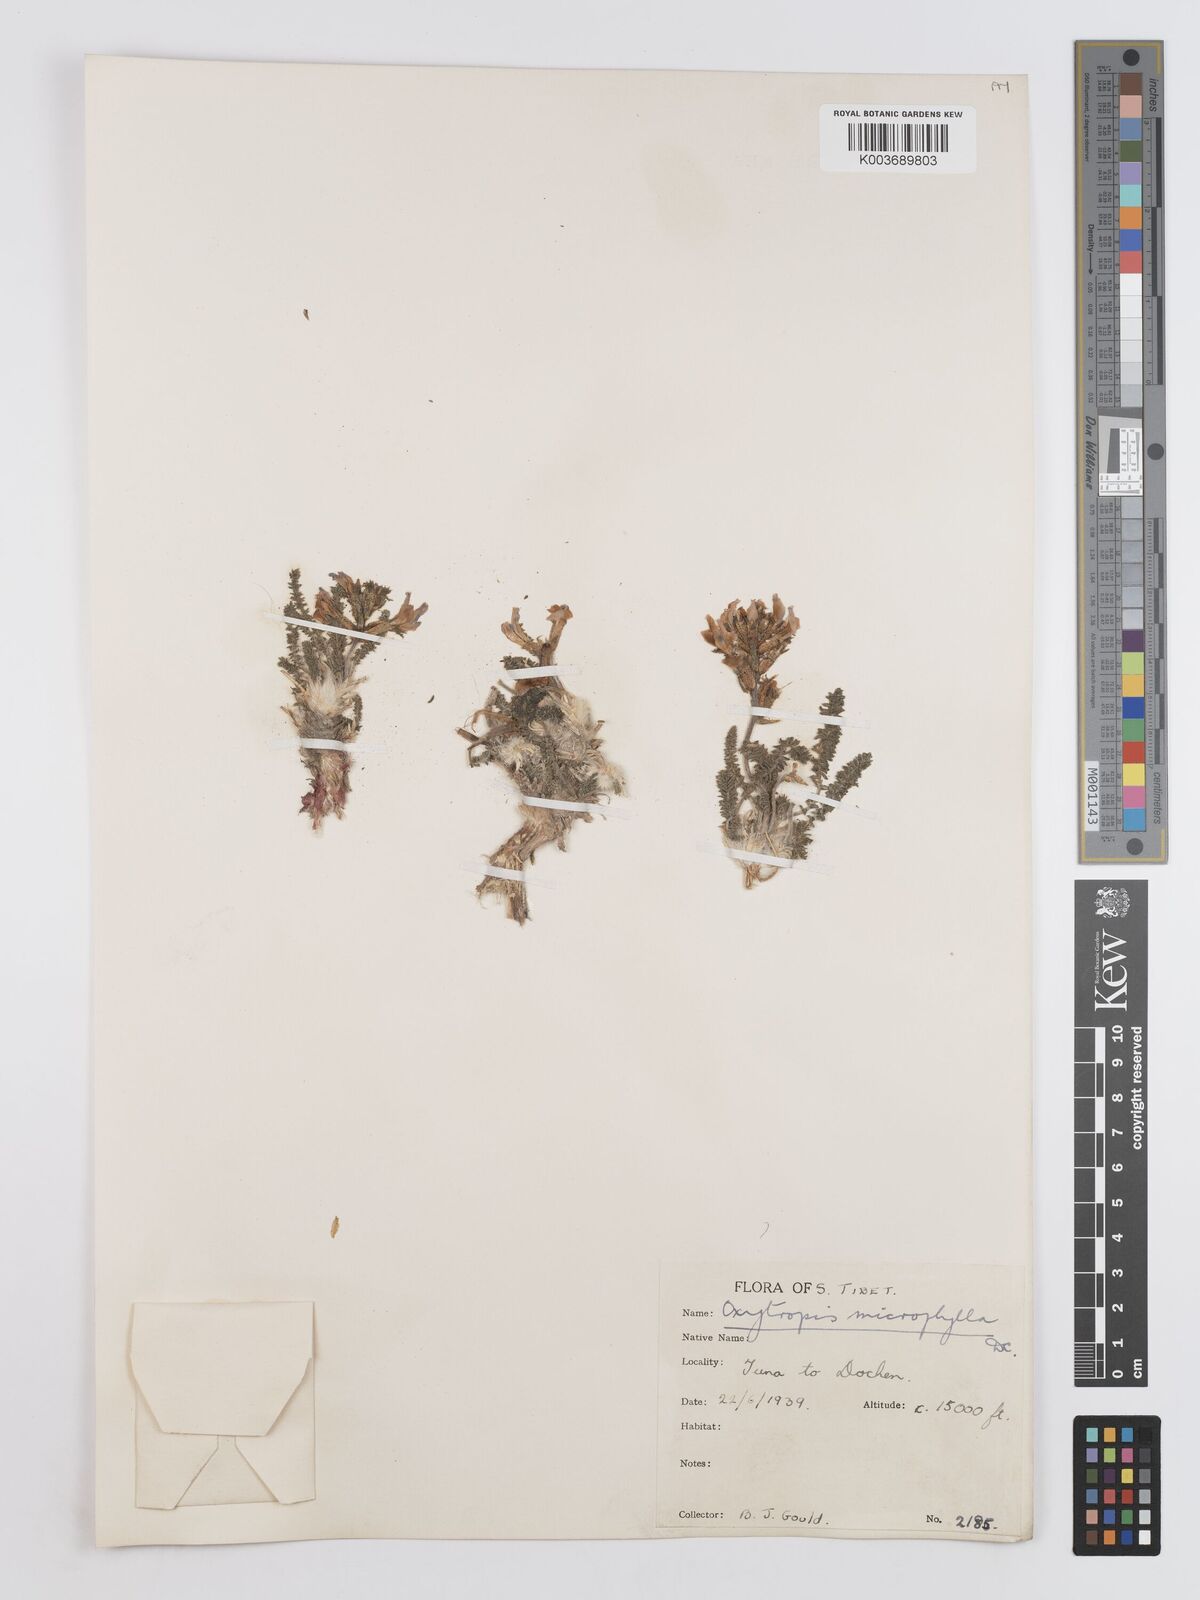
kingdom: Plantae
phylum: Tracheophyta
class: Magnoliopsida
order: Fabales
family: Fabaceae
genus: Oxytropis
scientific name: Oxytropis microphylla
